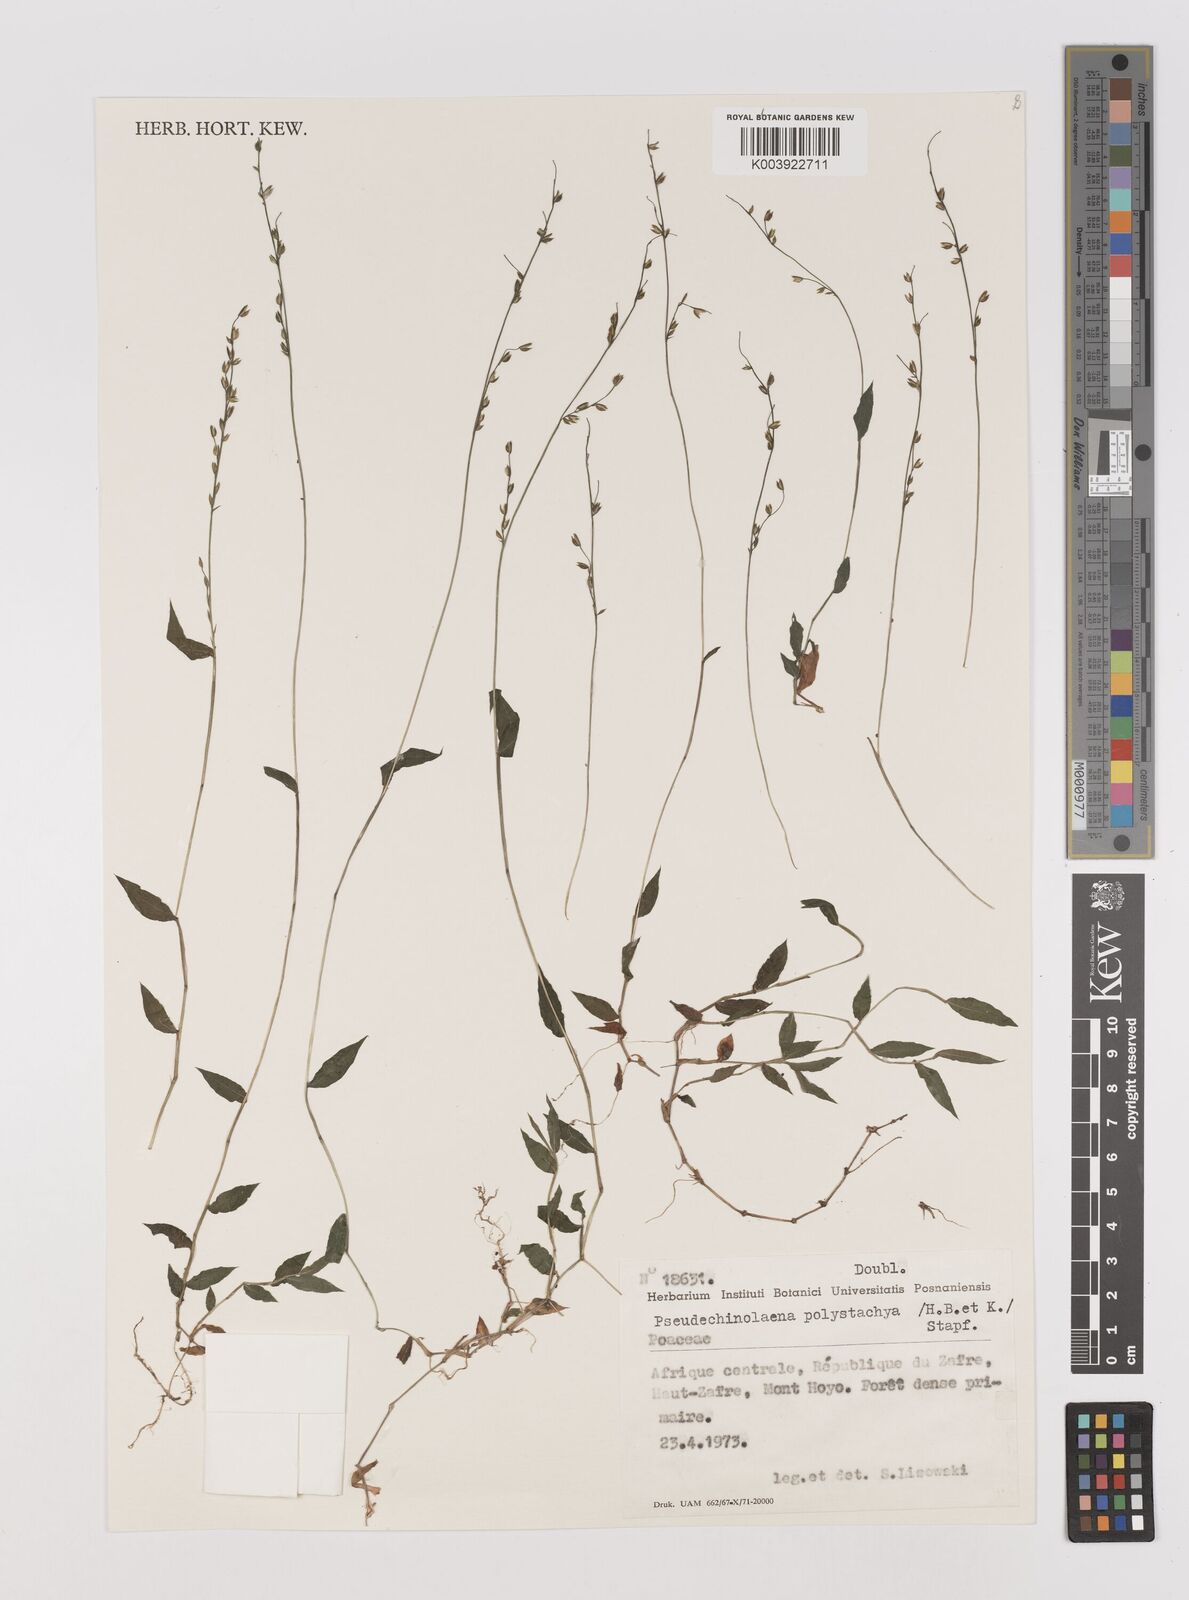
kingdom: Plantae
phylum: Tracheophyta
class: Liliopsida
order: Poales
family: Poaceae
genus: Pseudechinolaena
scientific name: Pseudechinolaena polystachya
